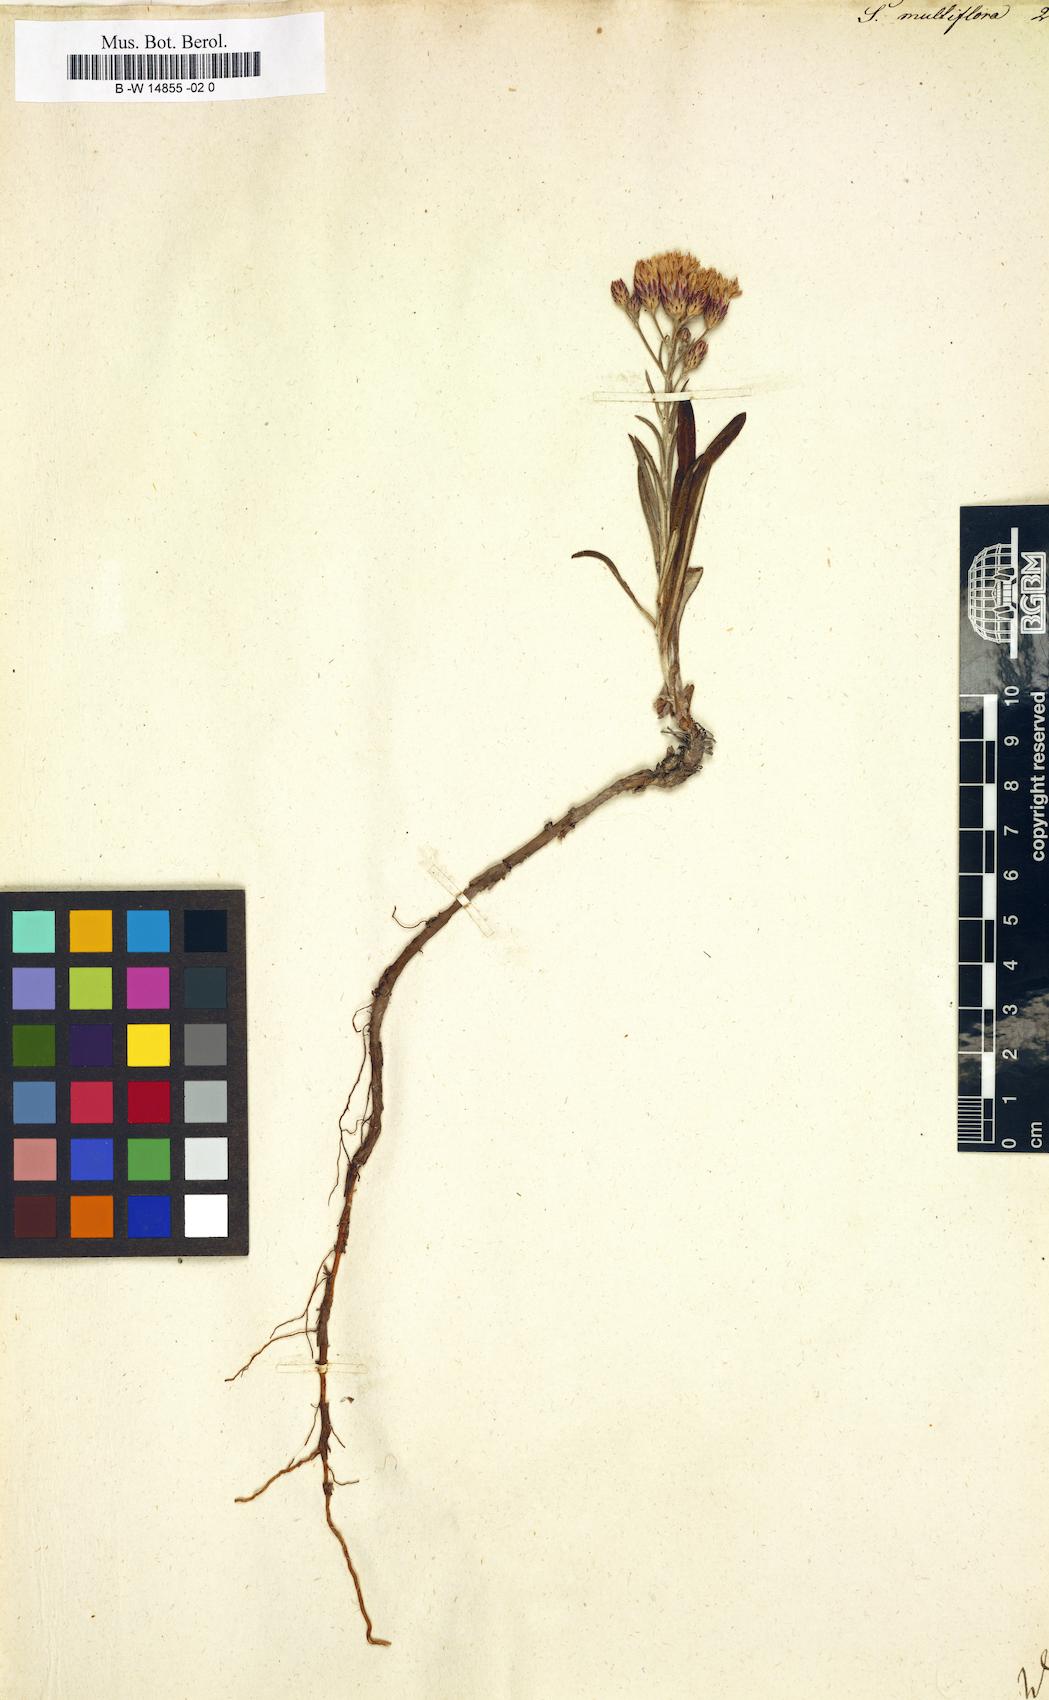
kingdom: Plantae
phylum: Tracheophyta
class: Magnoliopsida
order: Asterales
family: Asteraceae
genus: Serratula
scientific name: Serratula multiflora
